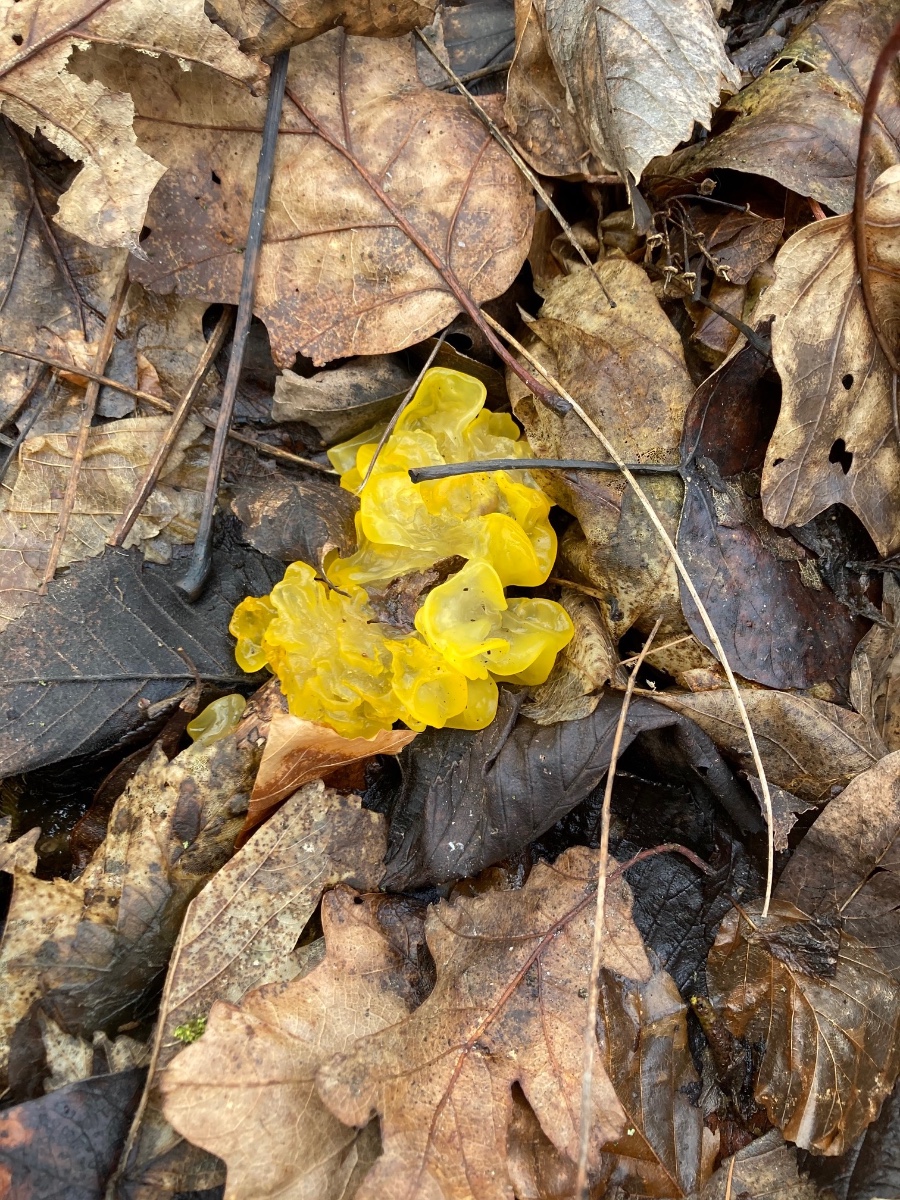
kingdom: Fungi
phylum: Basidiomycota
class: Tremellomycetes
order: Tremellales
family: Tremellaceae
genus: Tremella
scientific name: Tremella mesenterica
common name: gul bævresvamp
